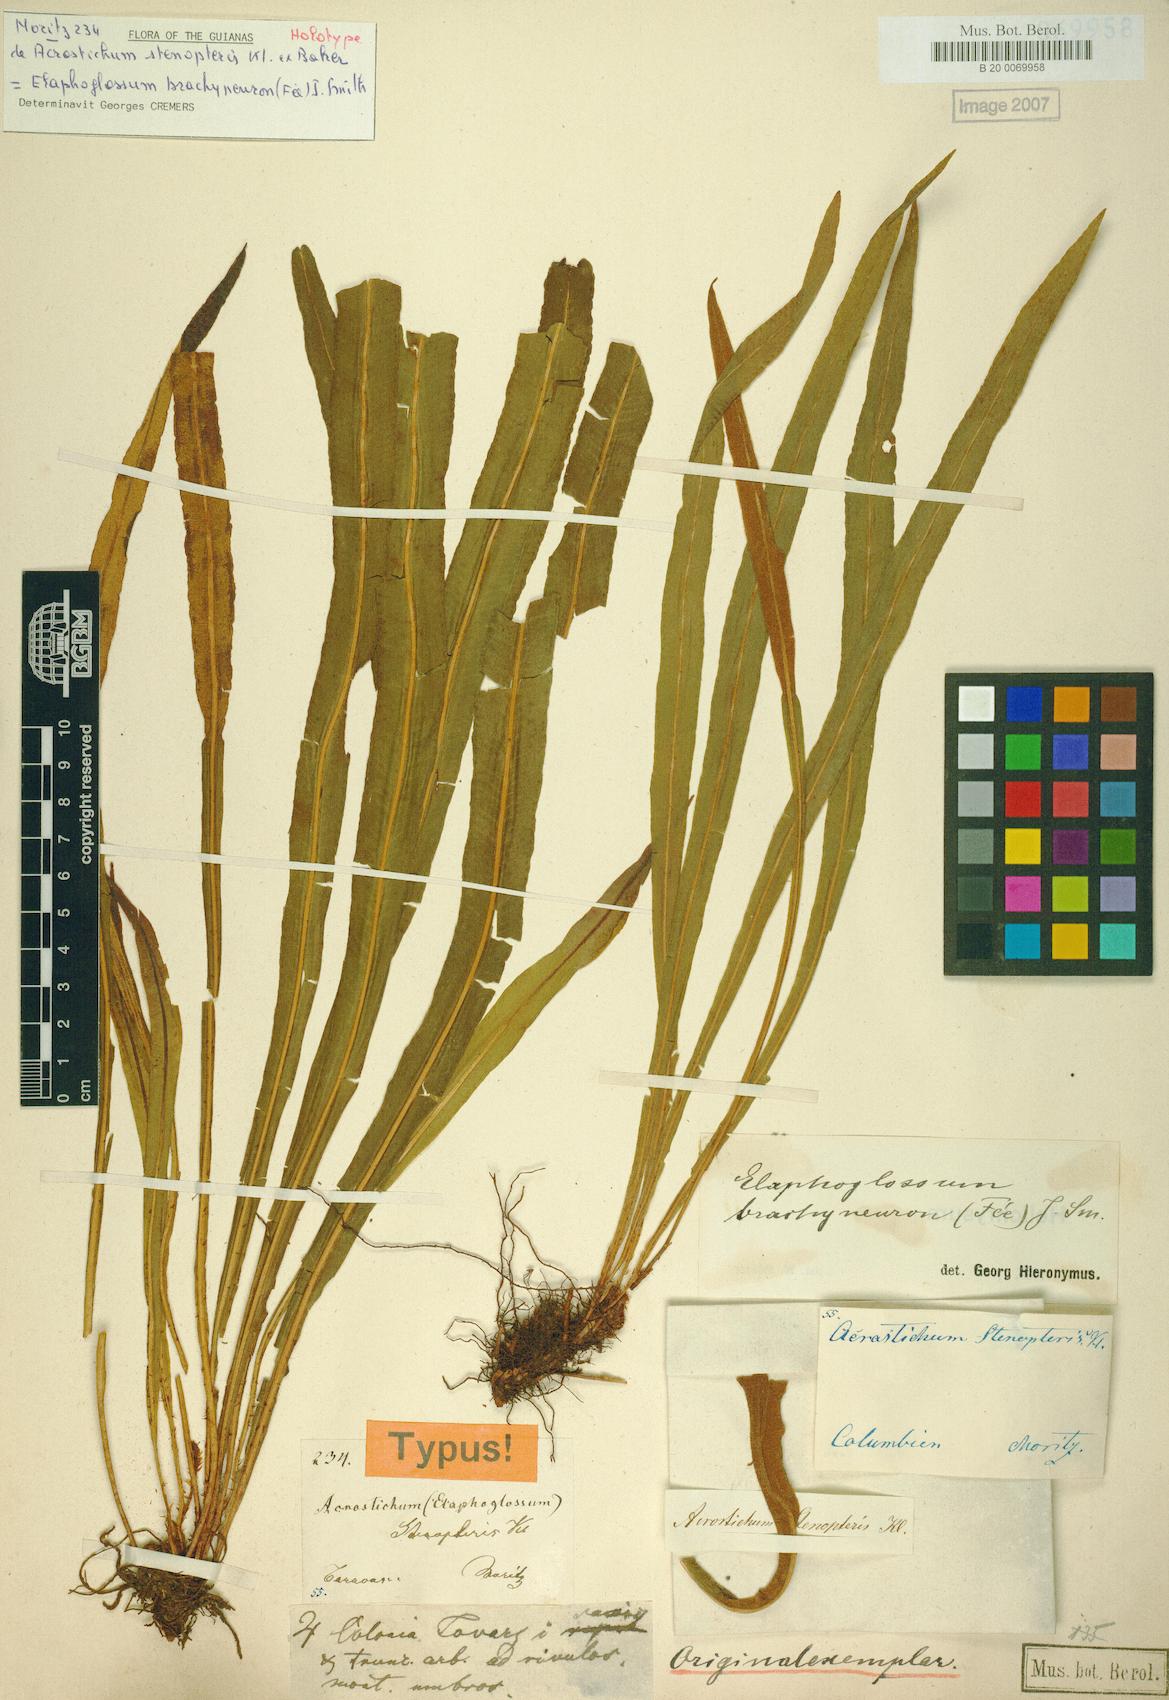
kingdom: Plantae
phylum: Tracheophyta
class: Polypodiopsida
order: Polypodiales
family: Dryopteridaceae
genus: Elaphoglossum
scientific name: Elaphoglossum brachyneuron
